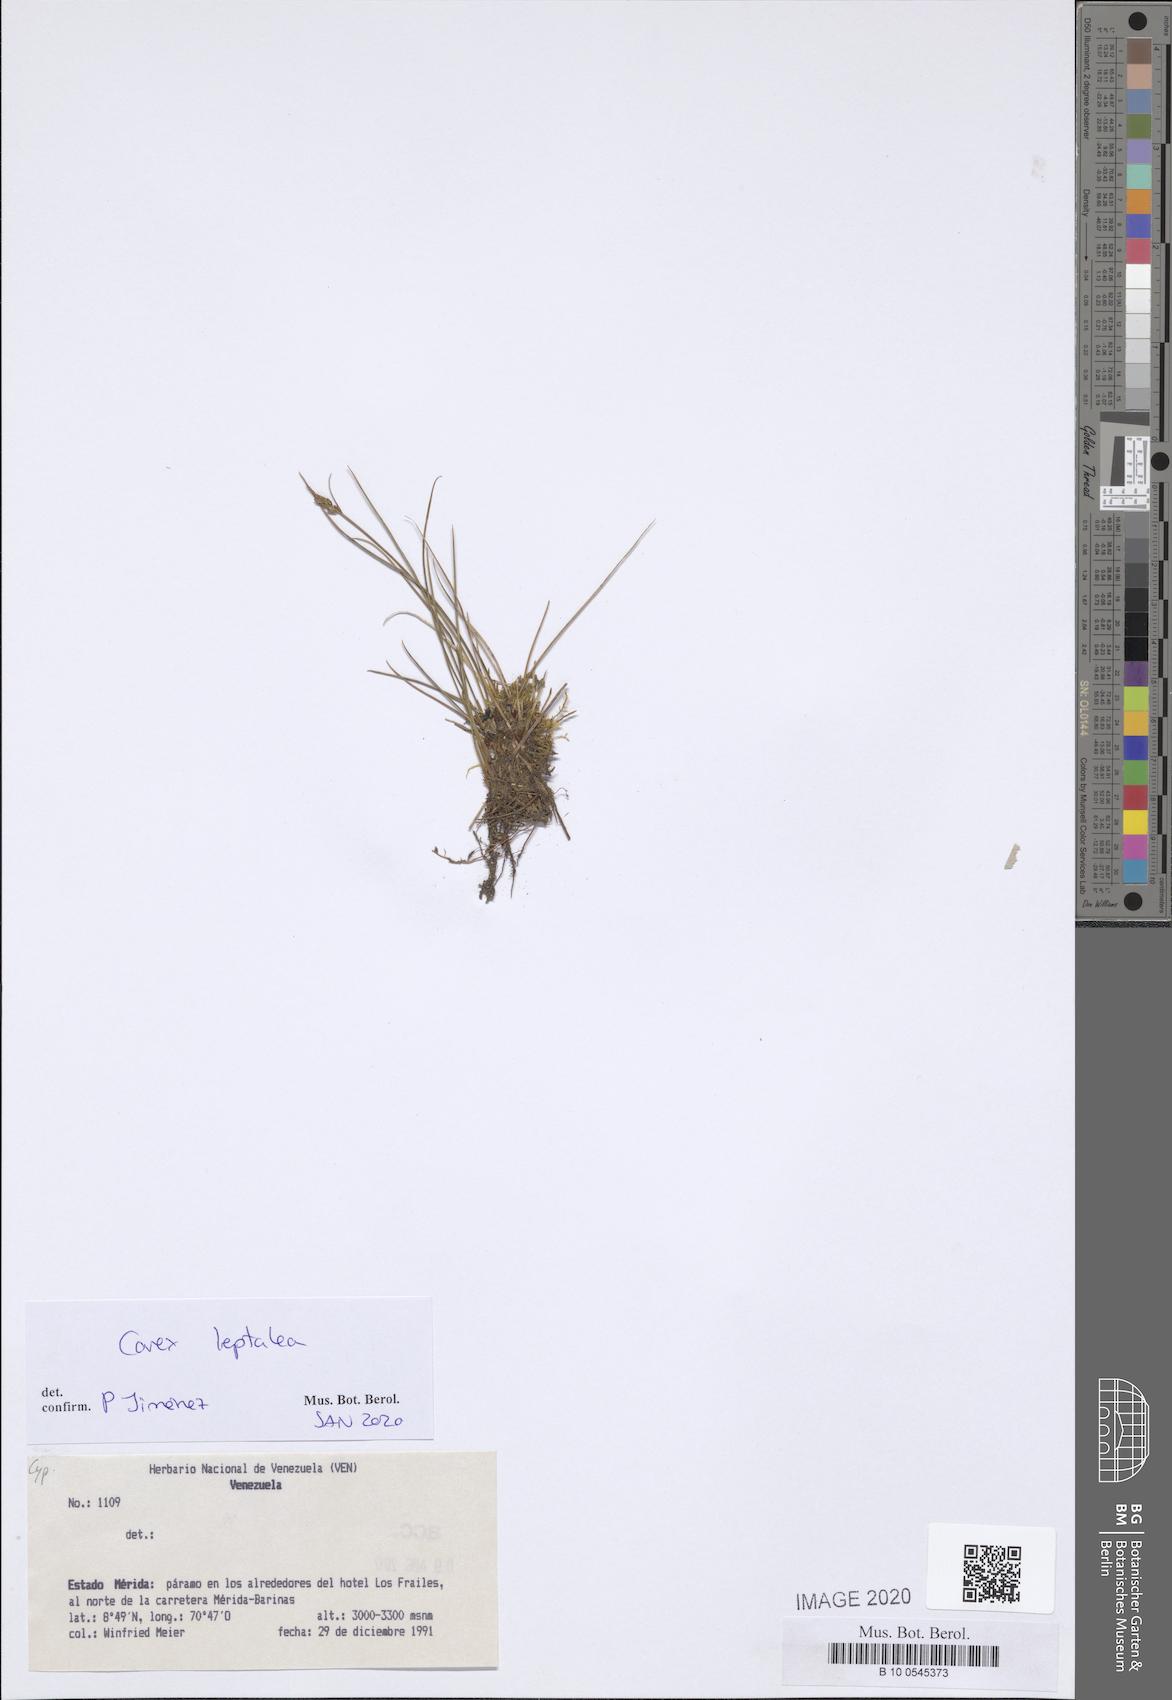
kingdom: Plantae
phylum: Tracheophyta
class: Liliopsida
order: Poales
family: Cyperaceae
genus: Carex
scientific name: Carex leptalea
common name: Bristly-stalked sedge
